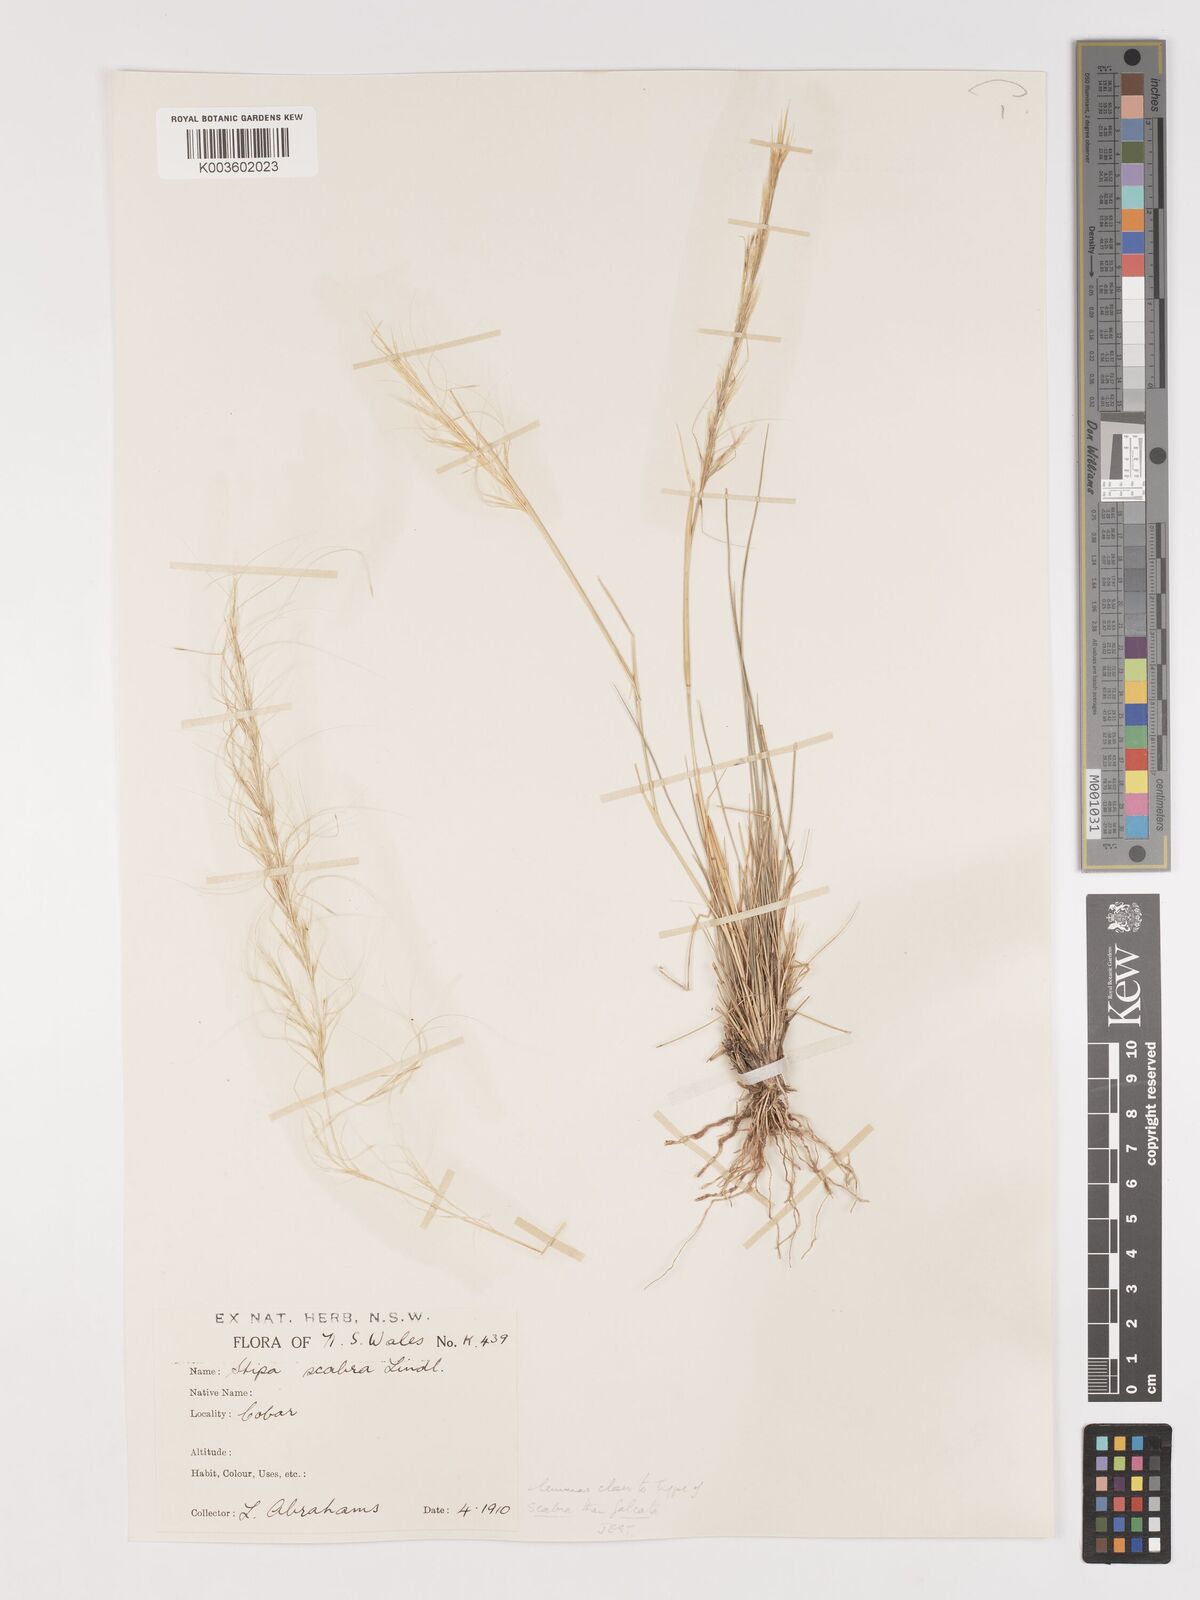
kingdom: Plantae
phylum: Tracheophyta
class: Liliopsida
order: Poales
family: Poaceae
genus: Austrostipa
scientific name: Austrostipa scabra
